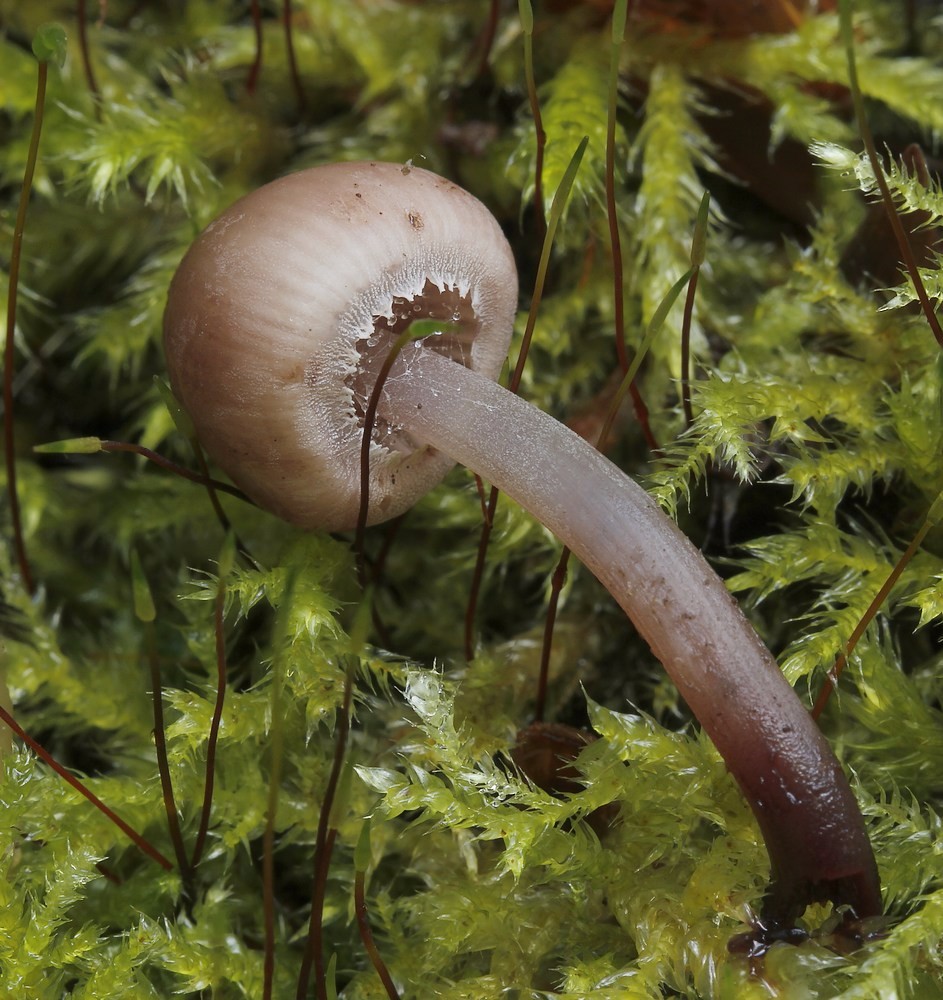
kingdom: Fungi
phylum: Basidiomycota
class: Agaricomycetes
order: Agaricales
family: Mycenaceae
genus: Mycena
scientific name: Mycena haematopus
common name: blødende huesvamp
